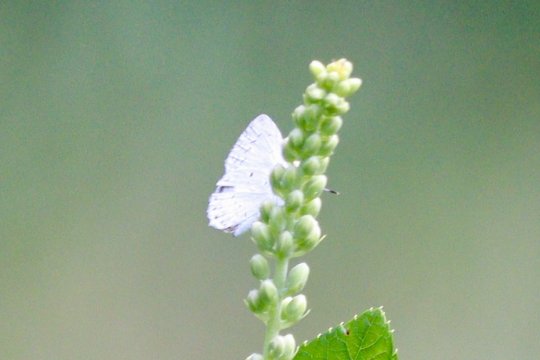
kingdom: Animalia
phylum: Arthropoda
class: Insecta
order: Lepidoptera
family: Lycaenidae
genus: Cyaniris
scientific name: Cyaniris neglecta
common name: Summer Azure
